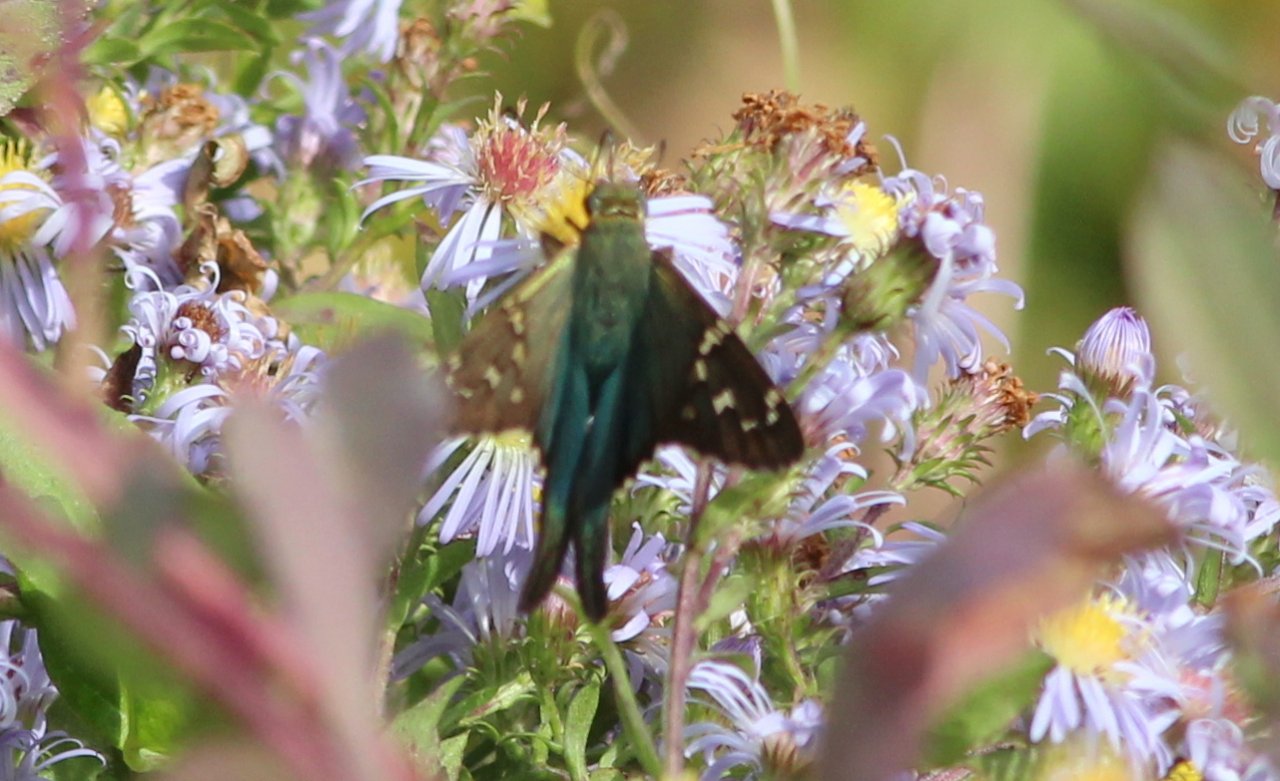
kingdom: Animalia
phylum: Arthropoda
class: Insecta
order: Lepidoptera
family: Hesperiidae
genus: Urbanus
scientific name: Urbanus proteus
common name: Long-tailed Skipper
